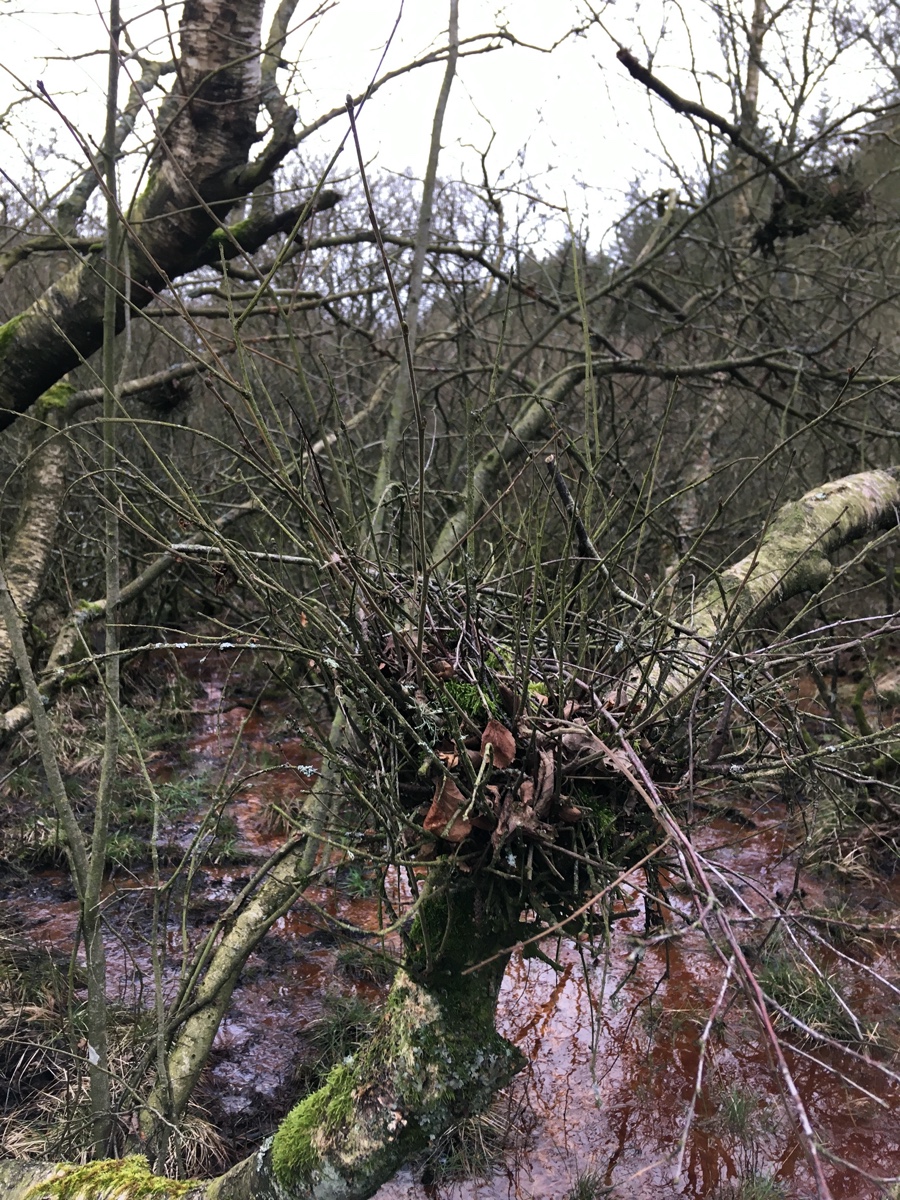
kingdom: Fungi
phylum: Ascomycota
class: Taphrinomycetes
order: Taphrinales
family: Taphrinaceae
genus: Taphrina
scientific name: Taphrina betulina
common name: hekse-sækdug
